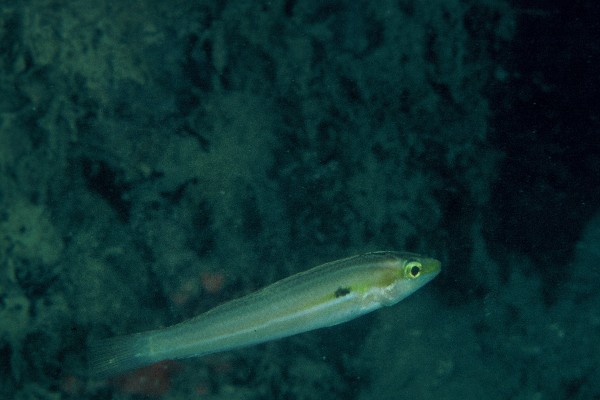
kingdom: Animalia
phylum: Chordata
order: Perciformes
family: Labridae
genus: Leptojulis
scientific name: Leptojulis urostigma
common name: Tail-spot v-wrasse
